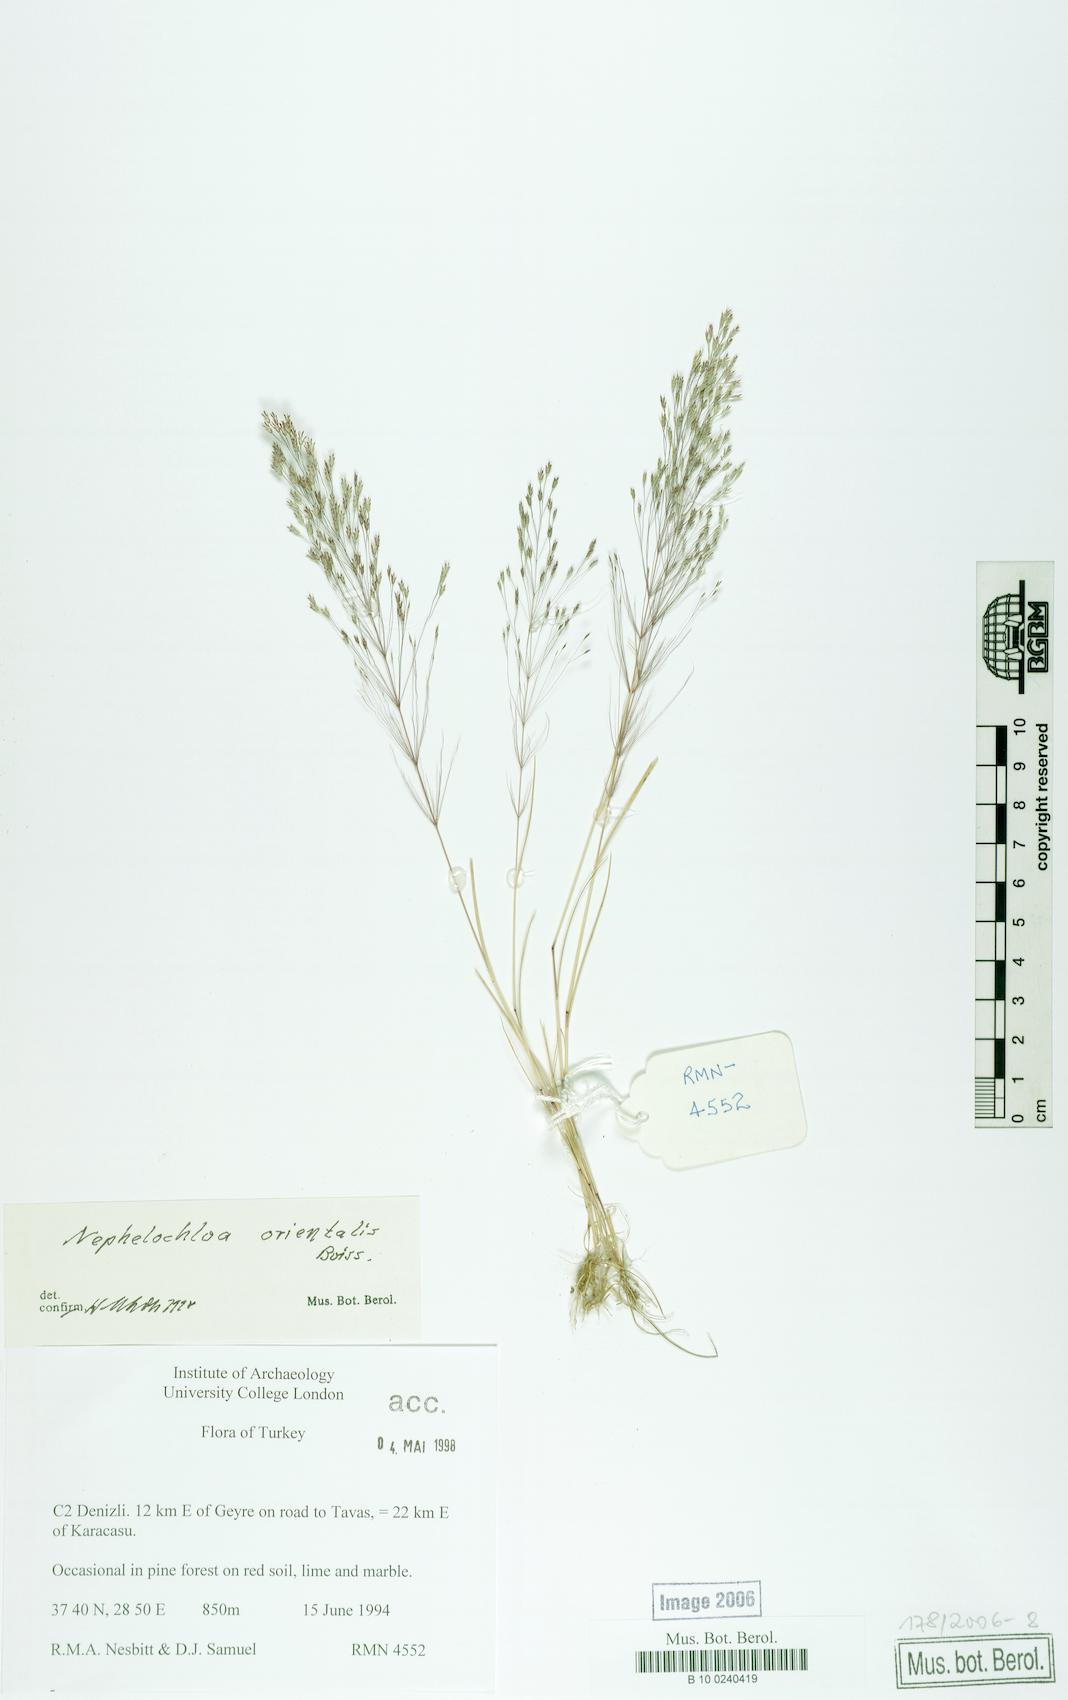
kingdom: Plantae
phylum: Tracheophyta
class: Liliopsida
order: Poales
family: Poaceae
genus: Nephelochloa
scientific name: Nephelochloa orientalis
